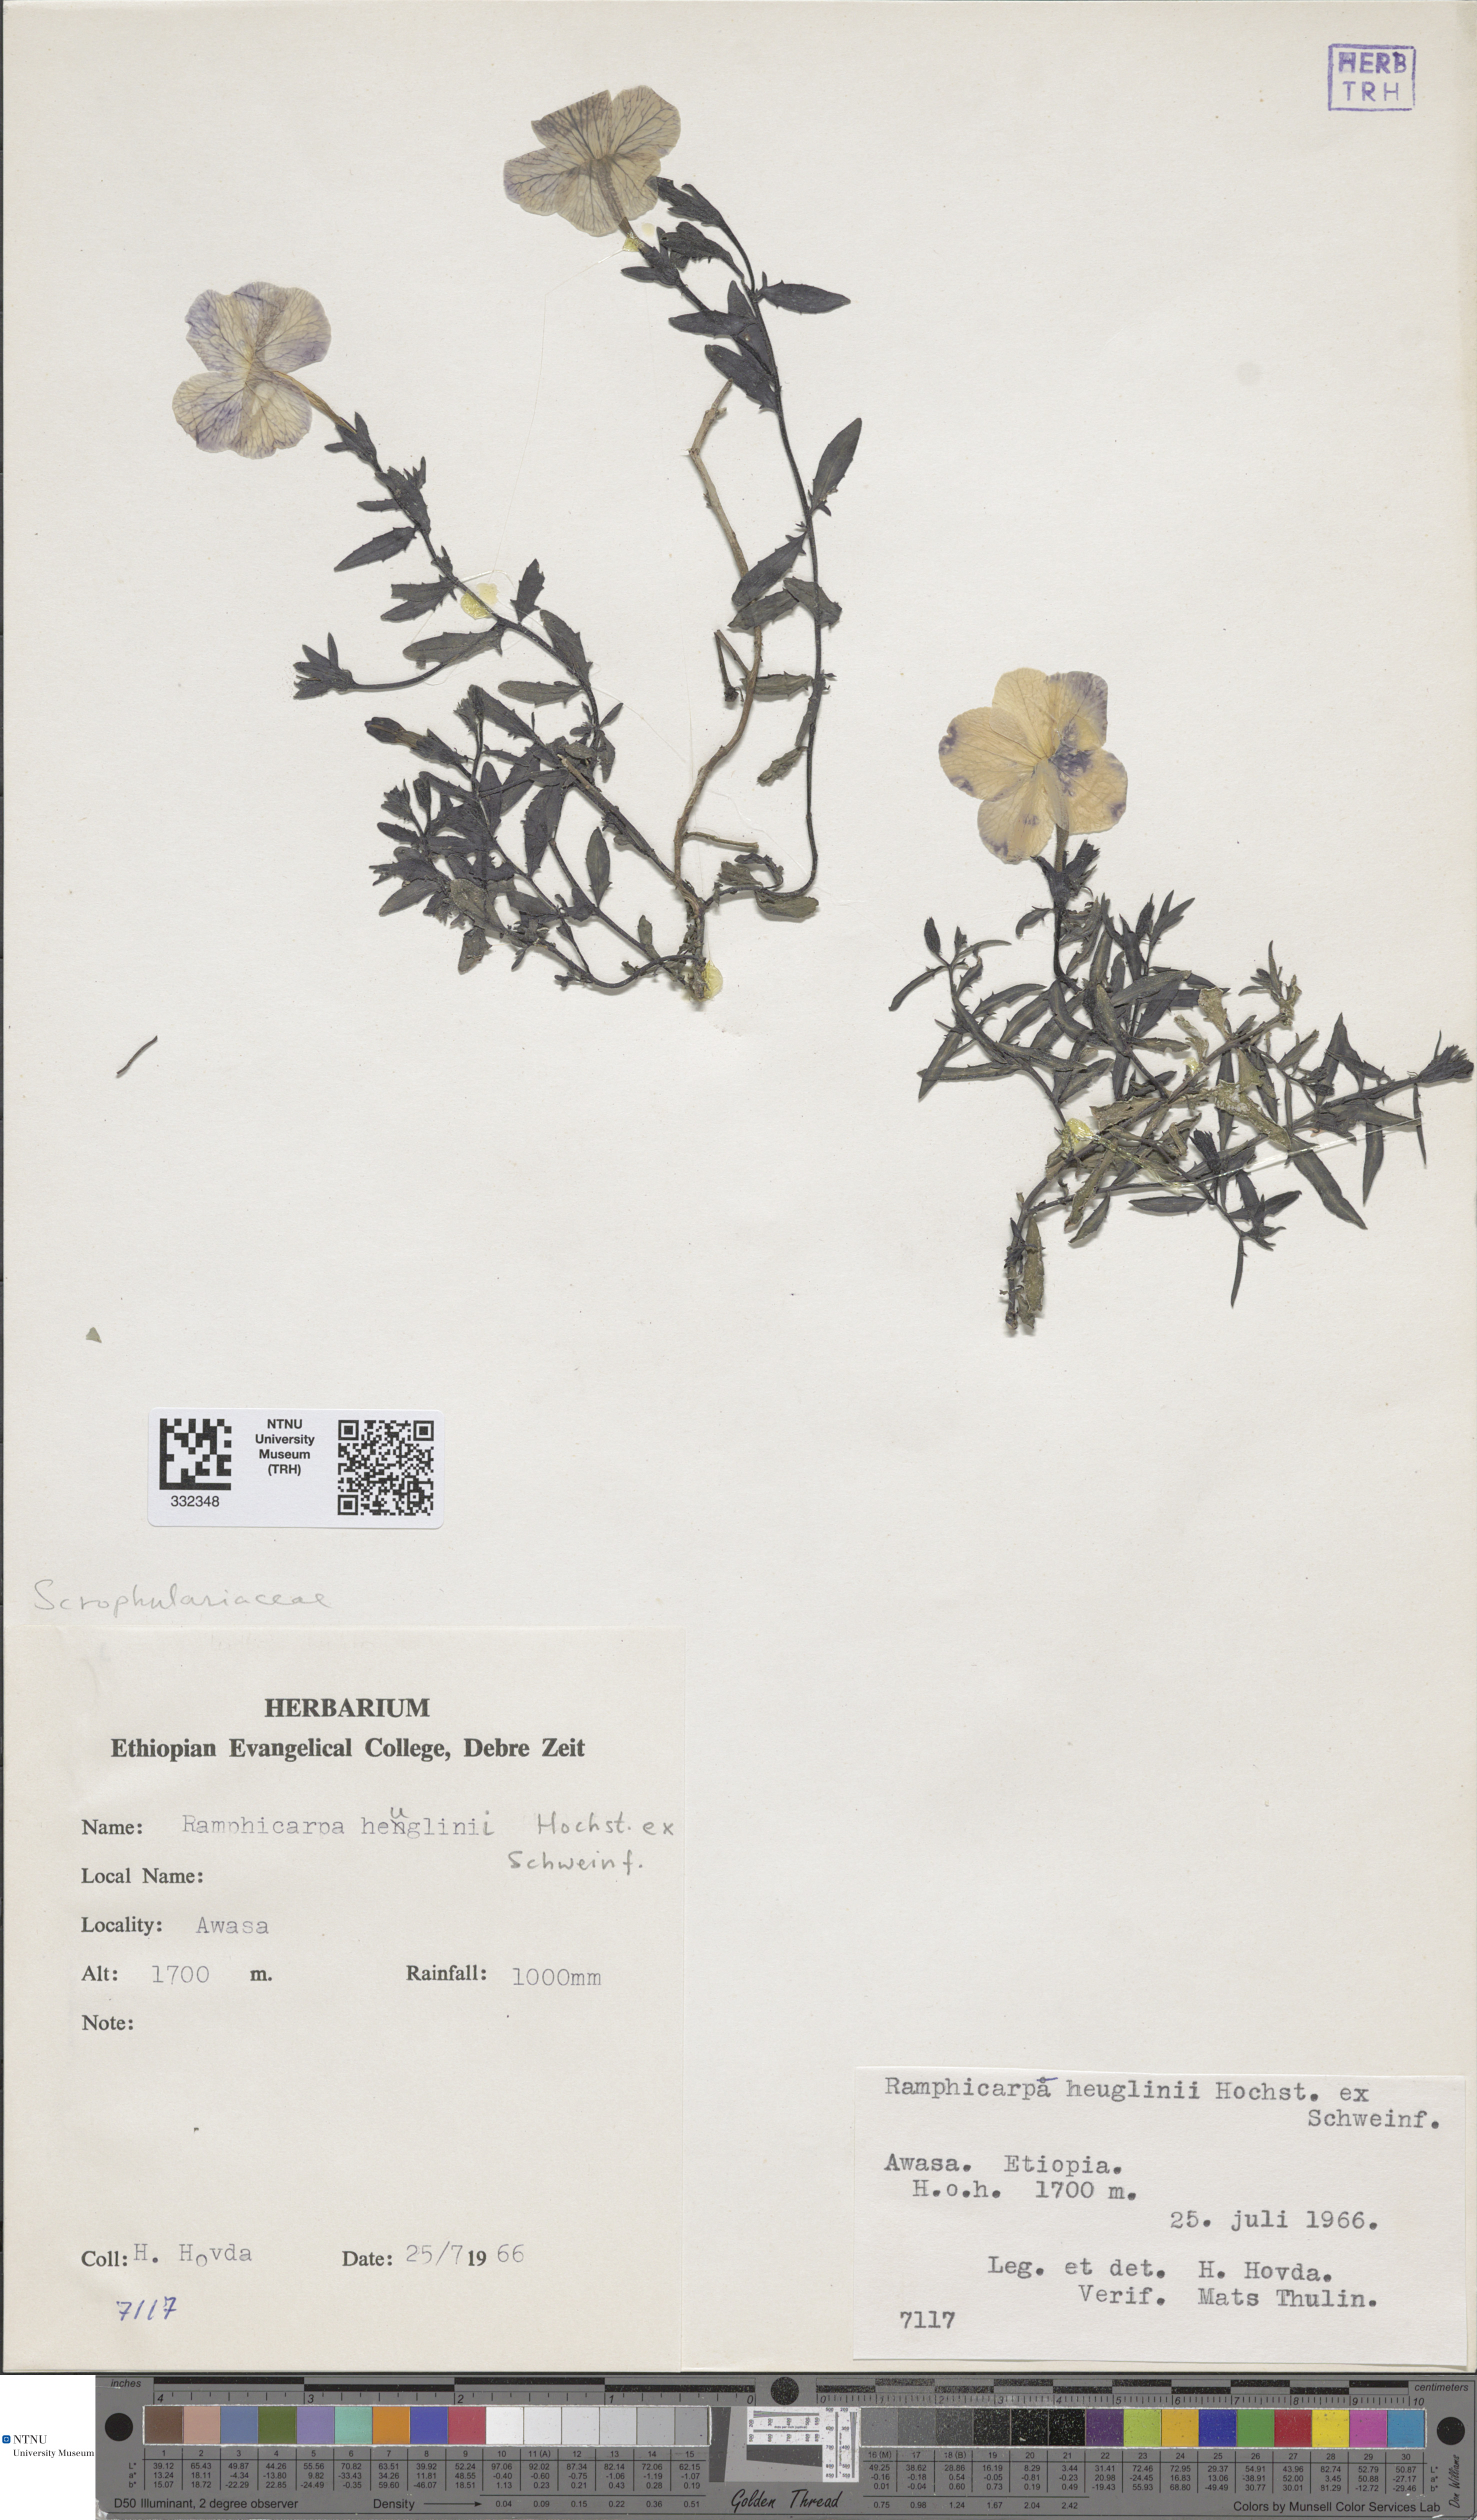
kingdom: Plantae
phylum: Tracheophyta
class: Magnoliopsida
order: Lamiales
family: Orobanchaceae
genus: Cycnium
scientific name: Cycnium tubulosum
